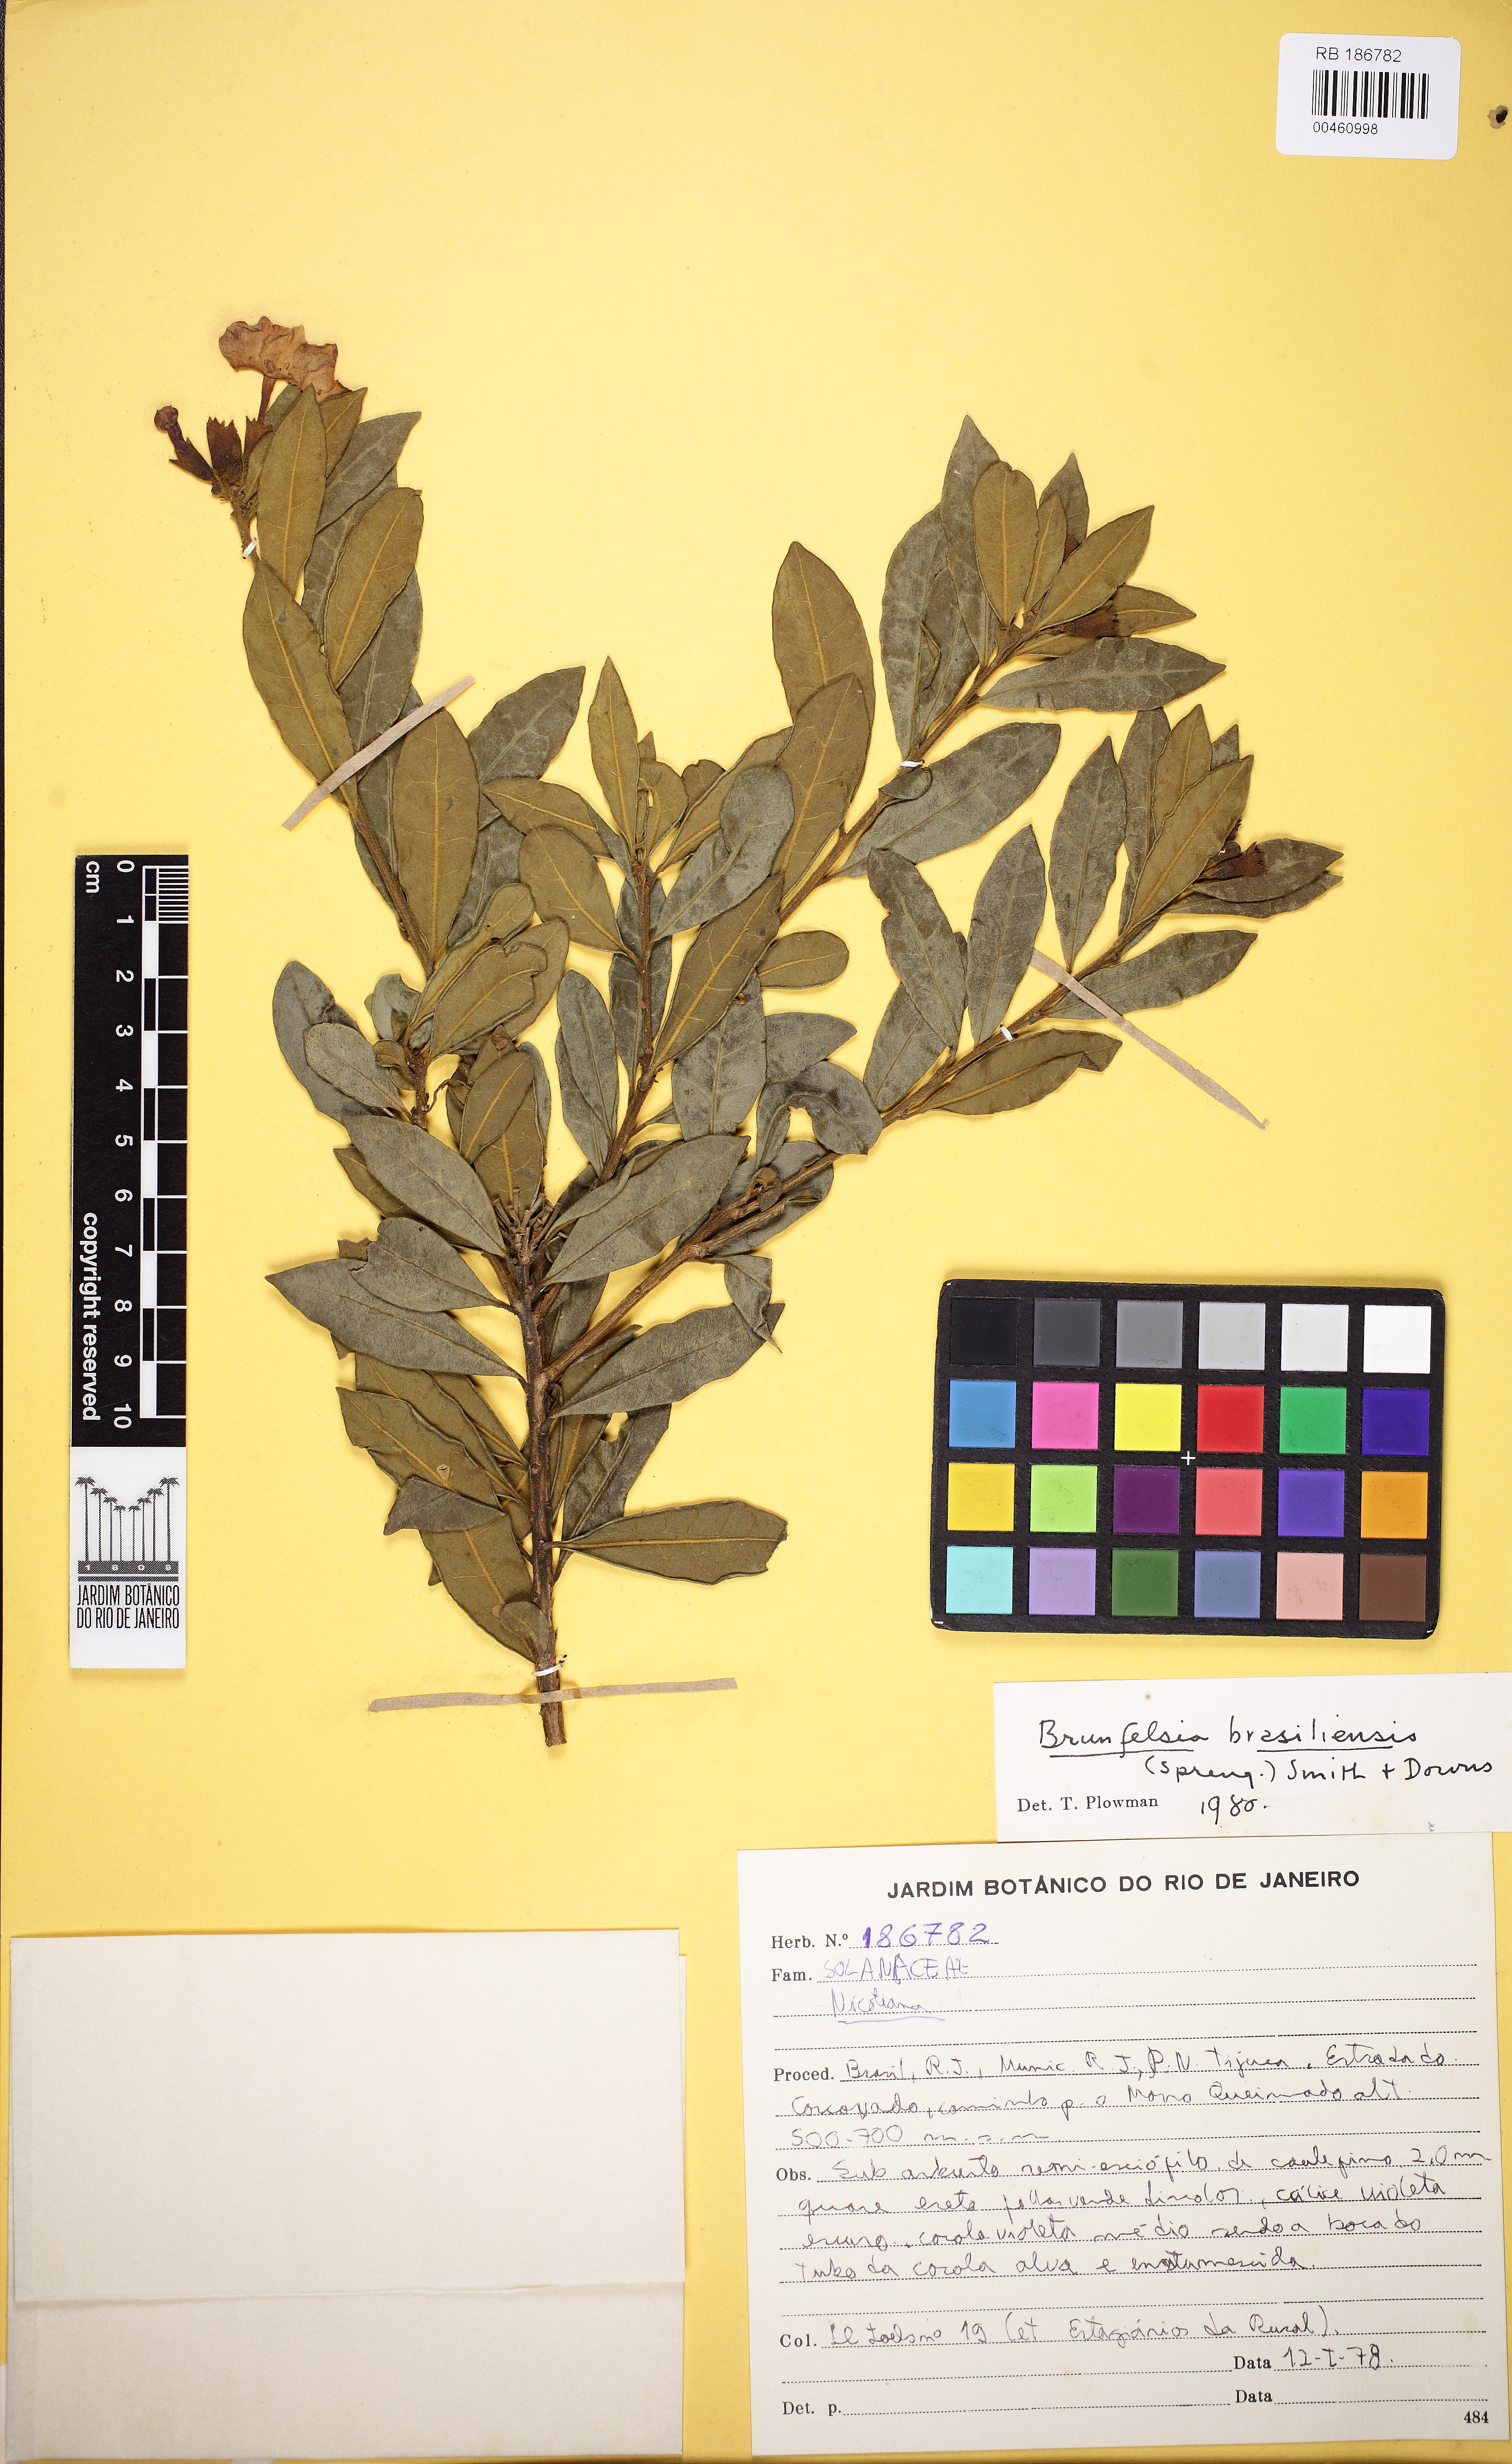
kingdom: Plantae
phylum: Tracheophyta
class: Magnoliopsida
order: Solanales
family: Solanaceae
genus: Brunfelsia
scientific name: Brunfelsia brasiliensis
